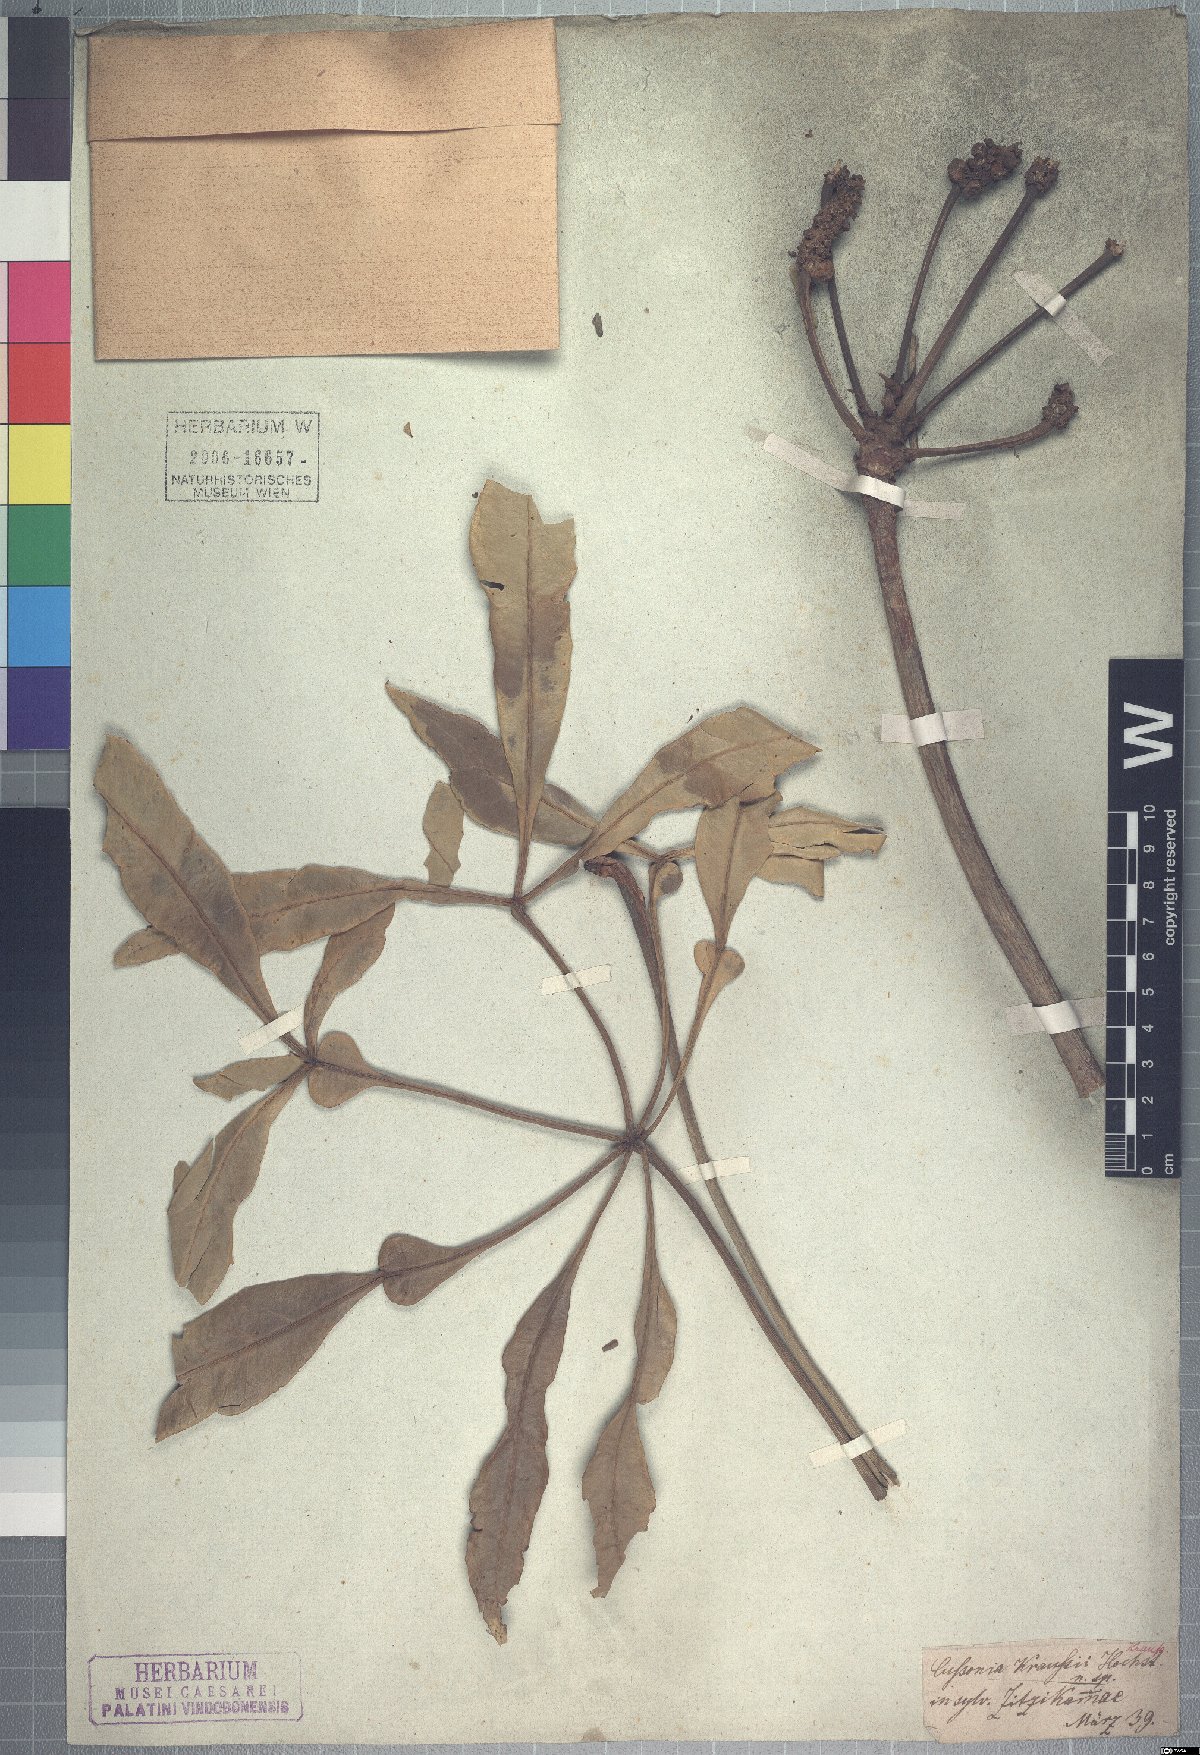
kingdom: Plantae
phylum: Tracheophyta
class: Magnoliopsida
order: Apiales
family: Araliaceae
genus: Cussonia
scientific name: Cussonia spicata
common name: Common cabbagetree
